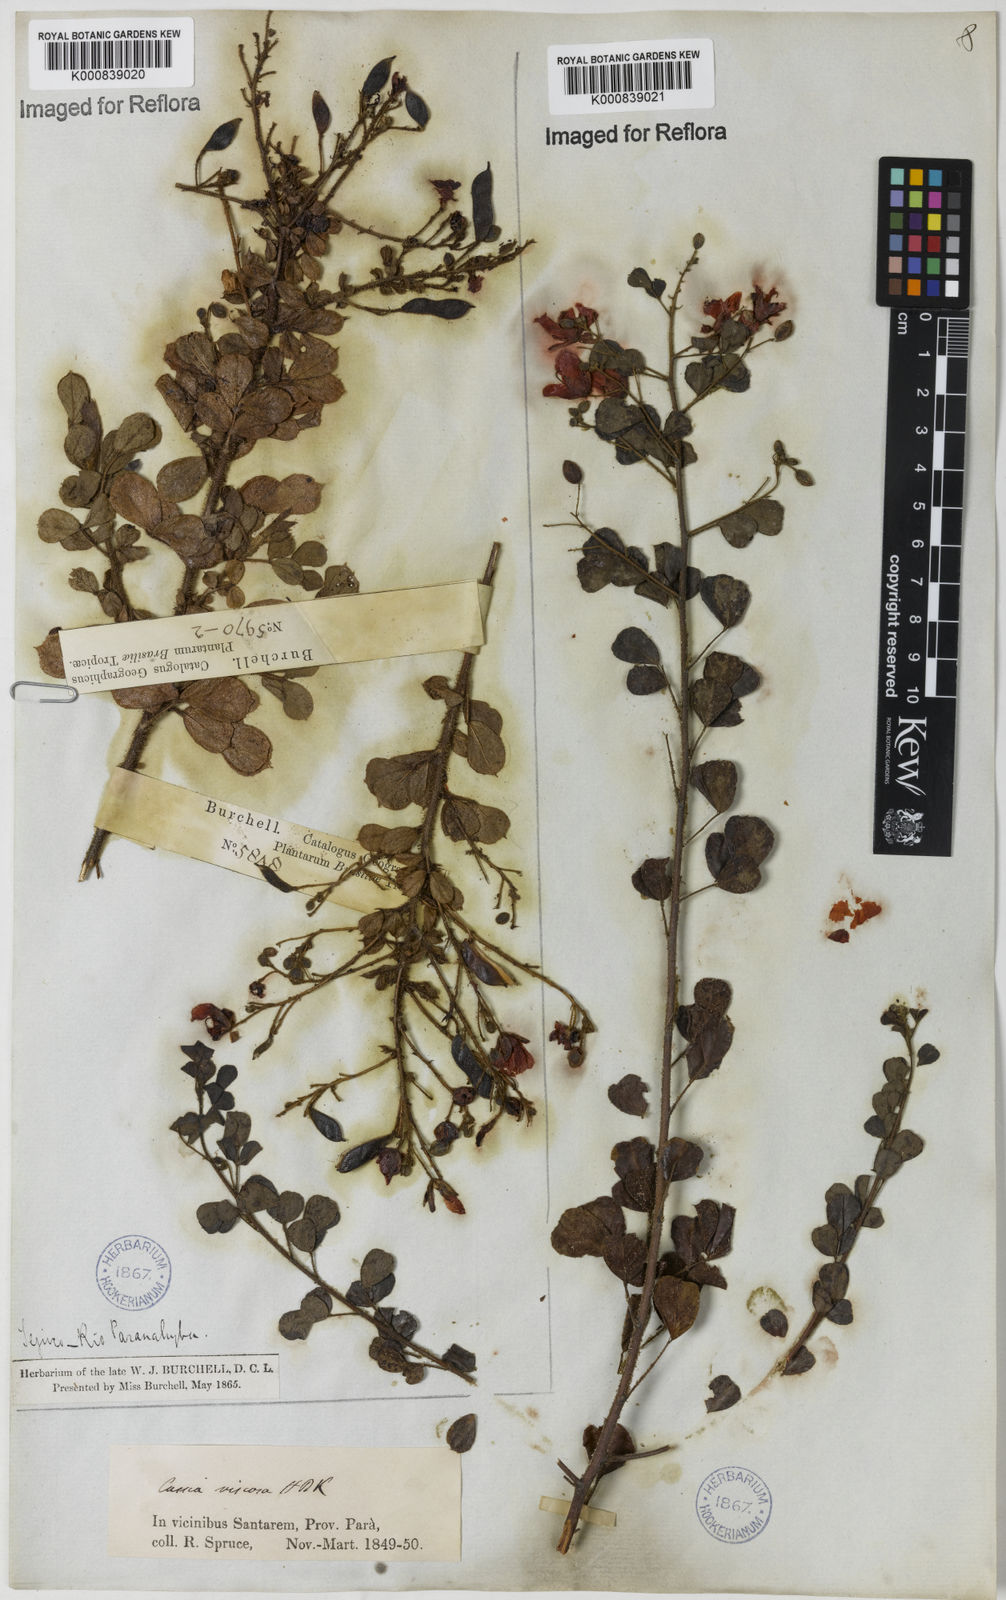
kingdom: Plantae
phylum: Tracheophyta
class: Magnoliopsida
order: Fabales
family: Fabaceae
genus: Chamaecrista
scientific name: Chamaecrista viscosa
